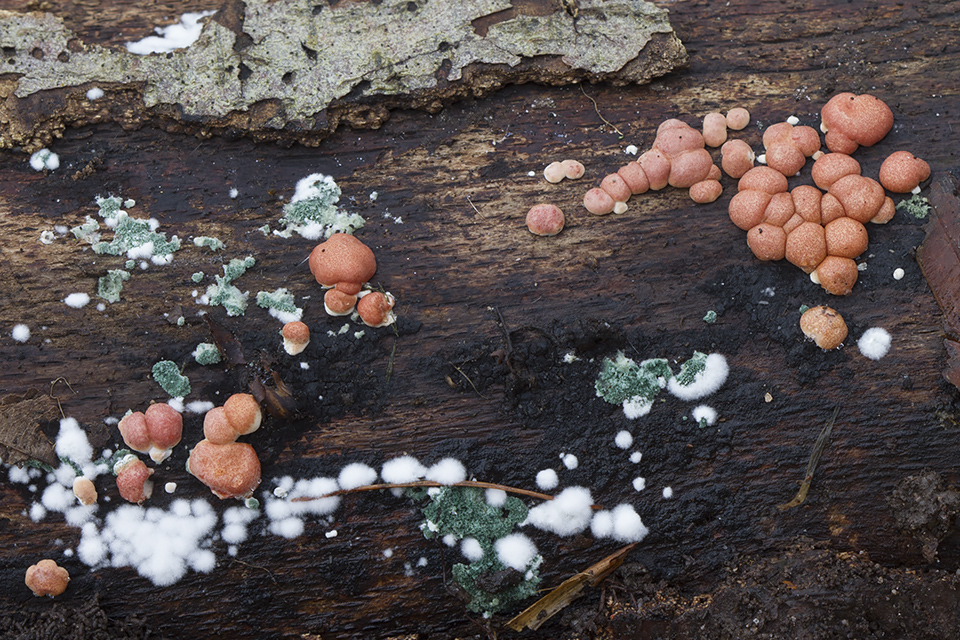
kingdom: Fungi
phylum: Ascomycota
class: Sordariomycetes
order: Hypocreales
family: Hypocreaceae
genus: Trichoderma
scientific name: Trichoderma europaeum
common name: rosabrun kødkerne
